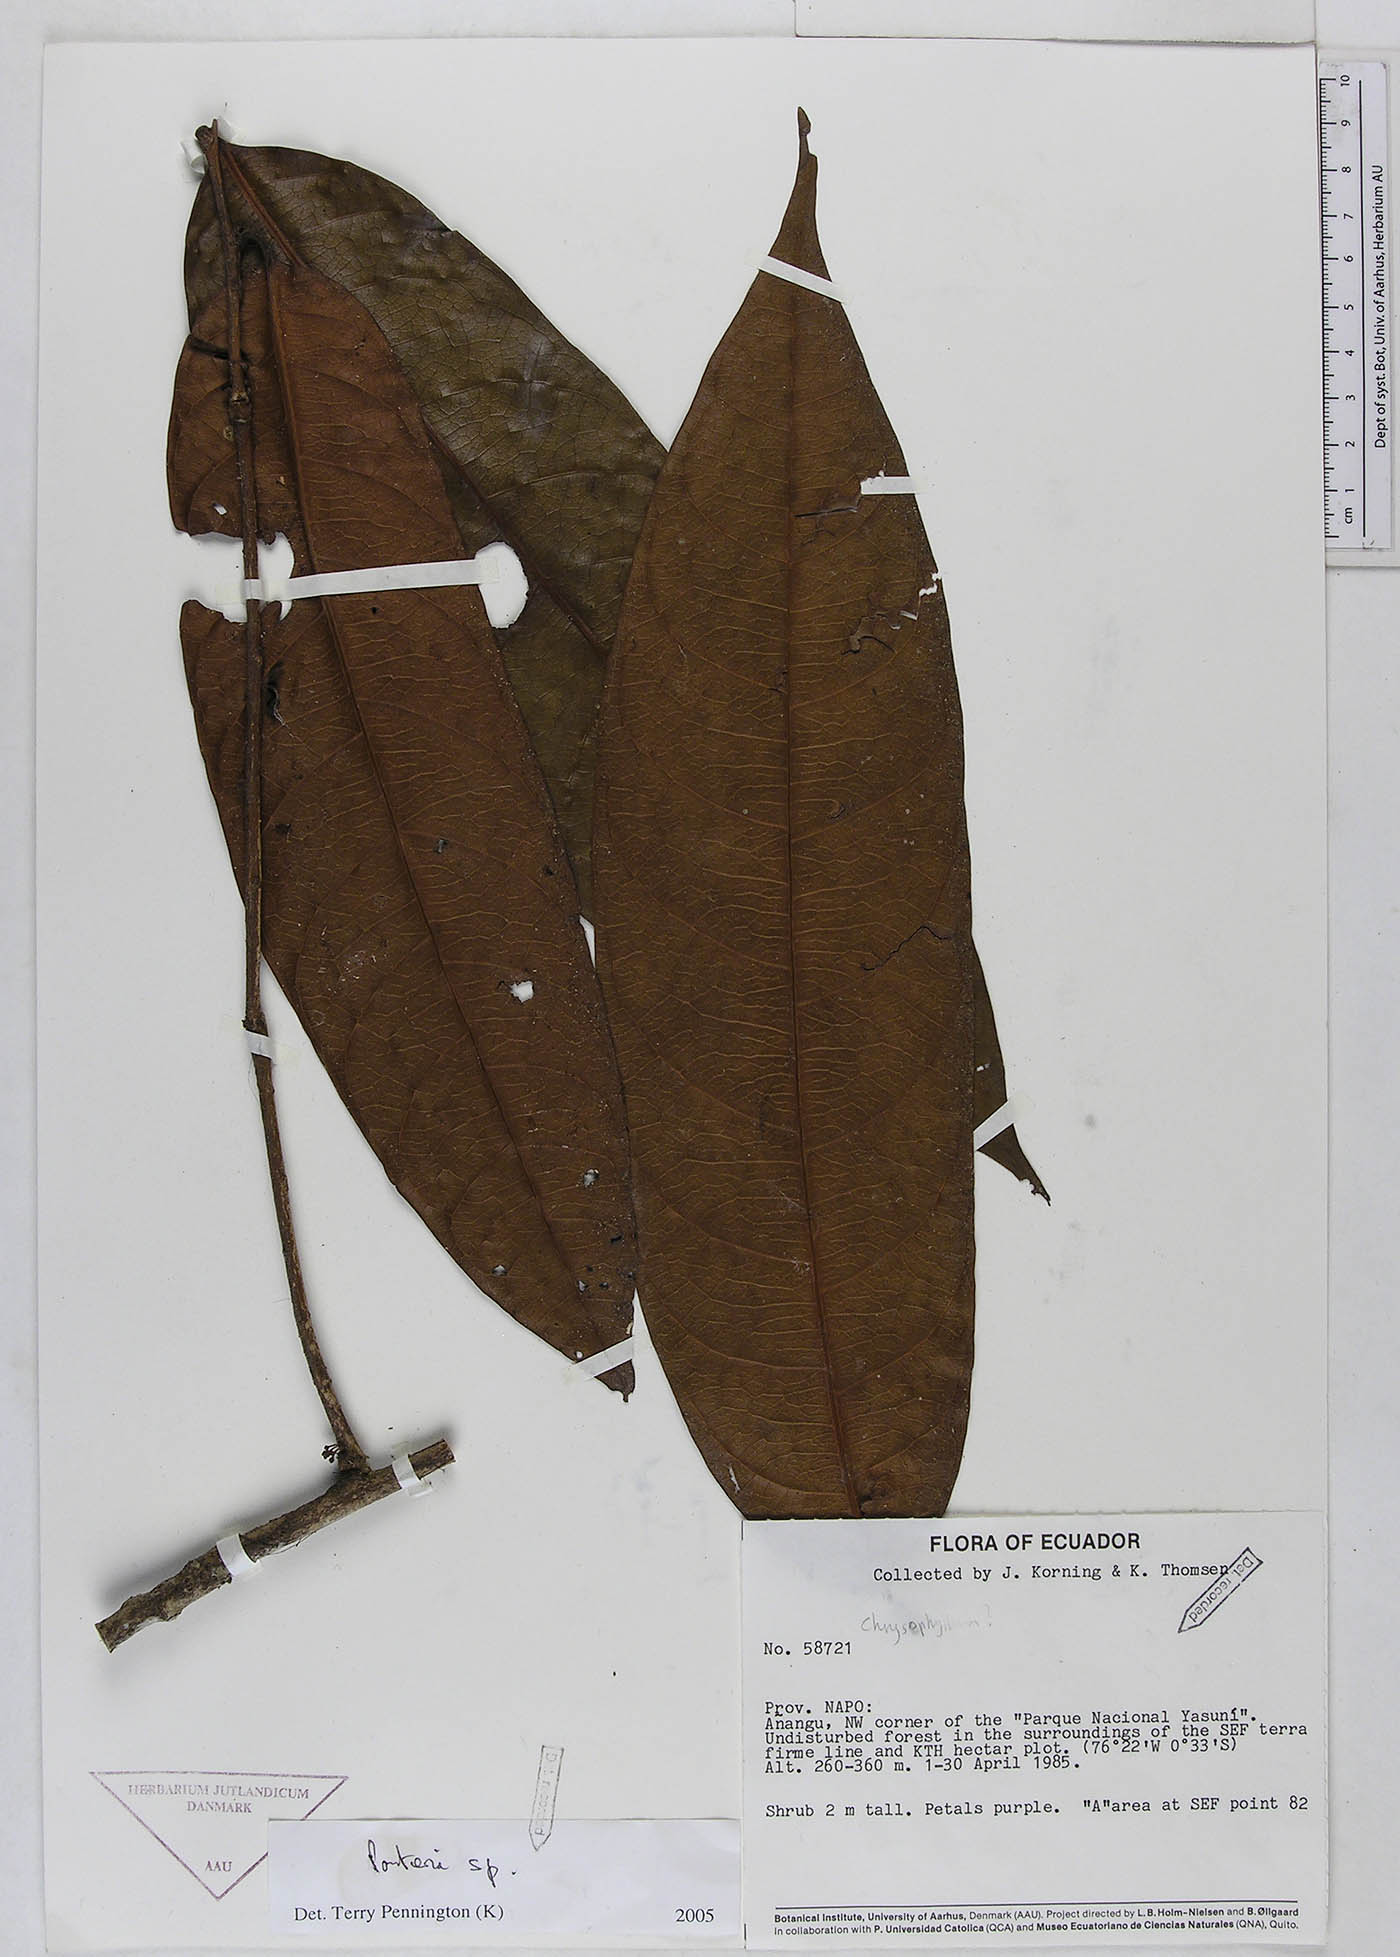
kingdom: Plantae
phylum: Tracheophyta
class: Magnoliopsida
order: Ericales
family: Sapotaceae
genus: Pouteria
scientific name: Pouteria
